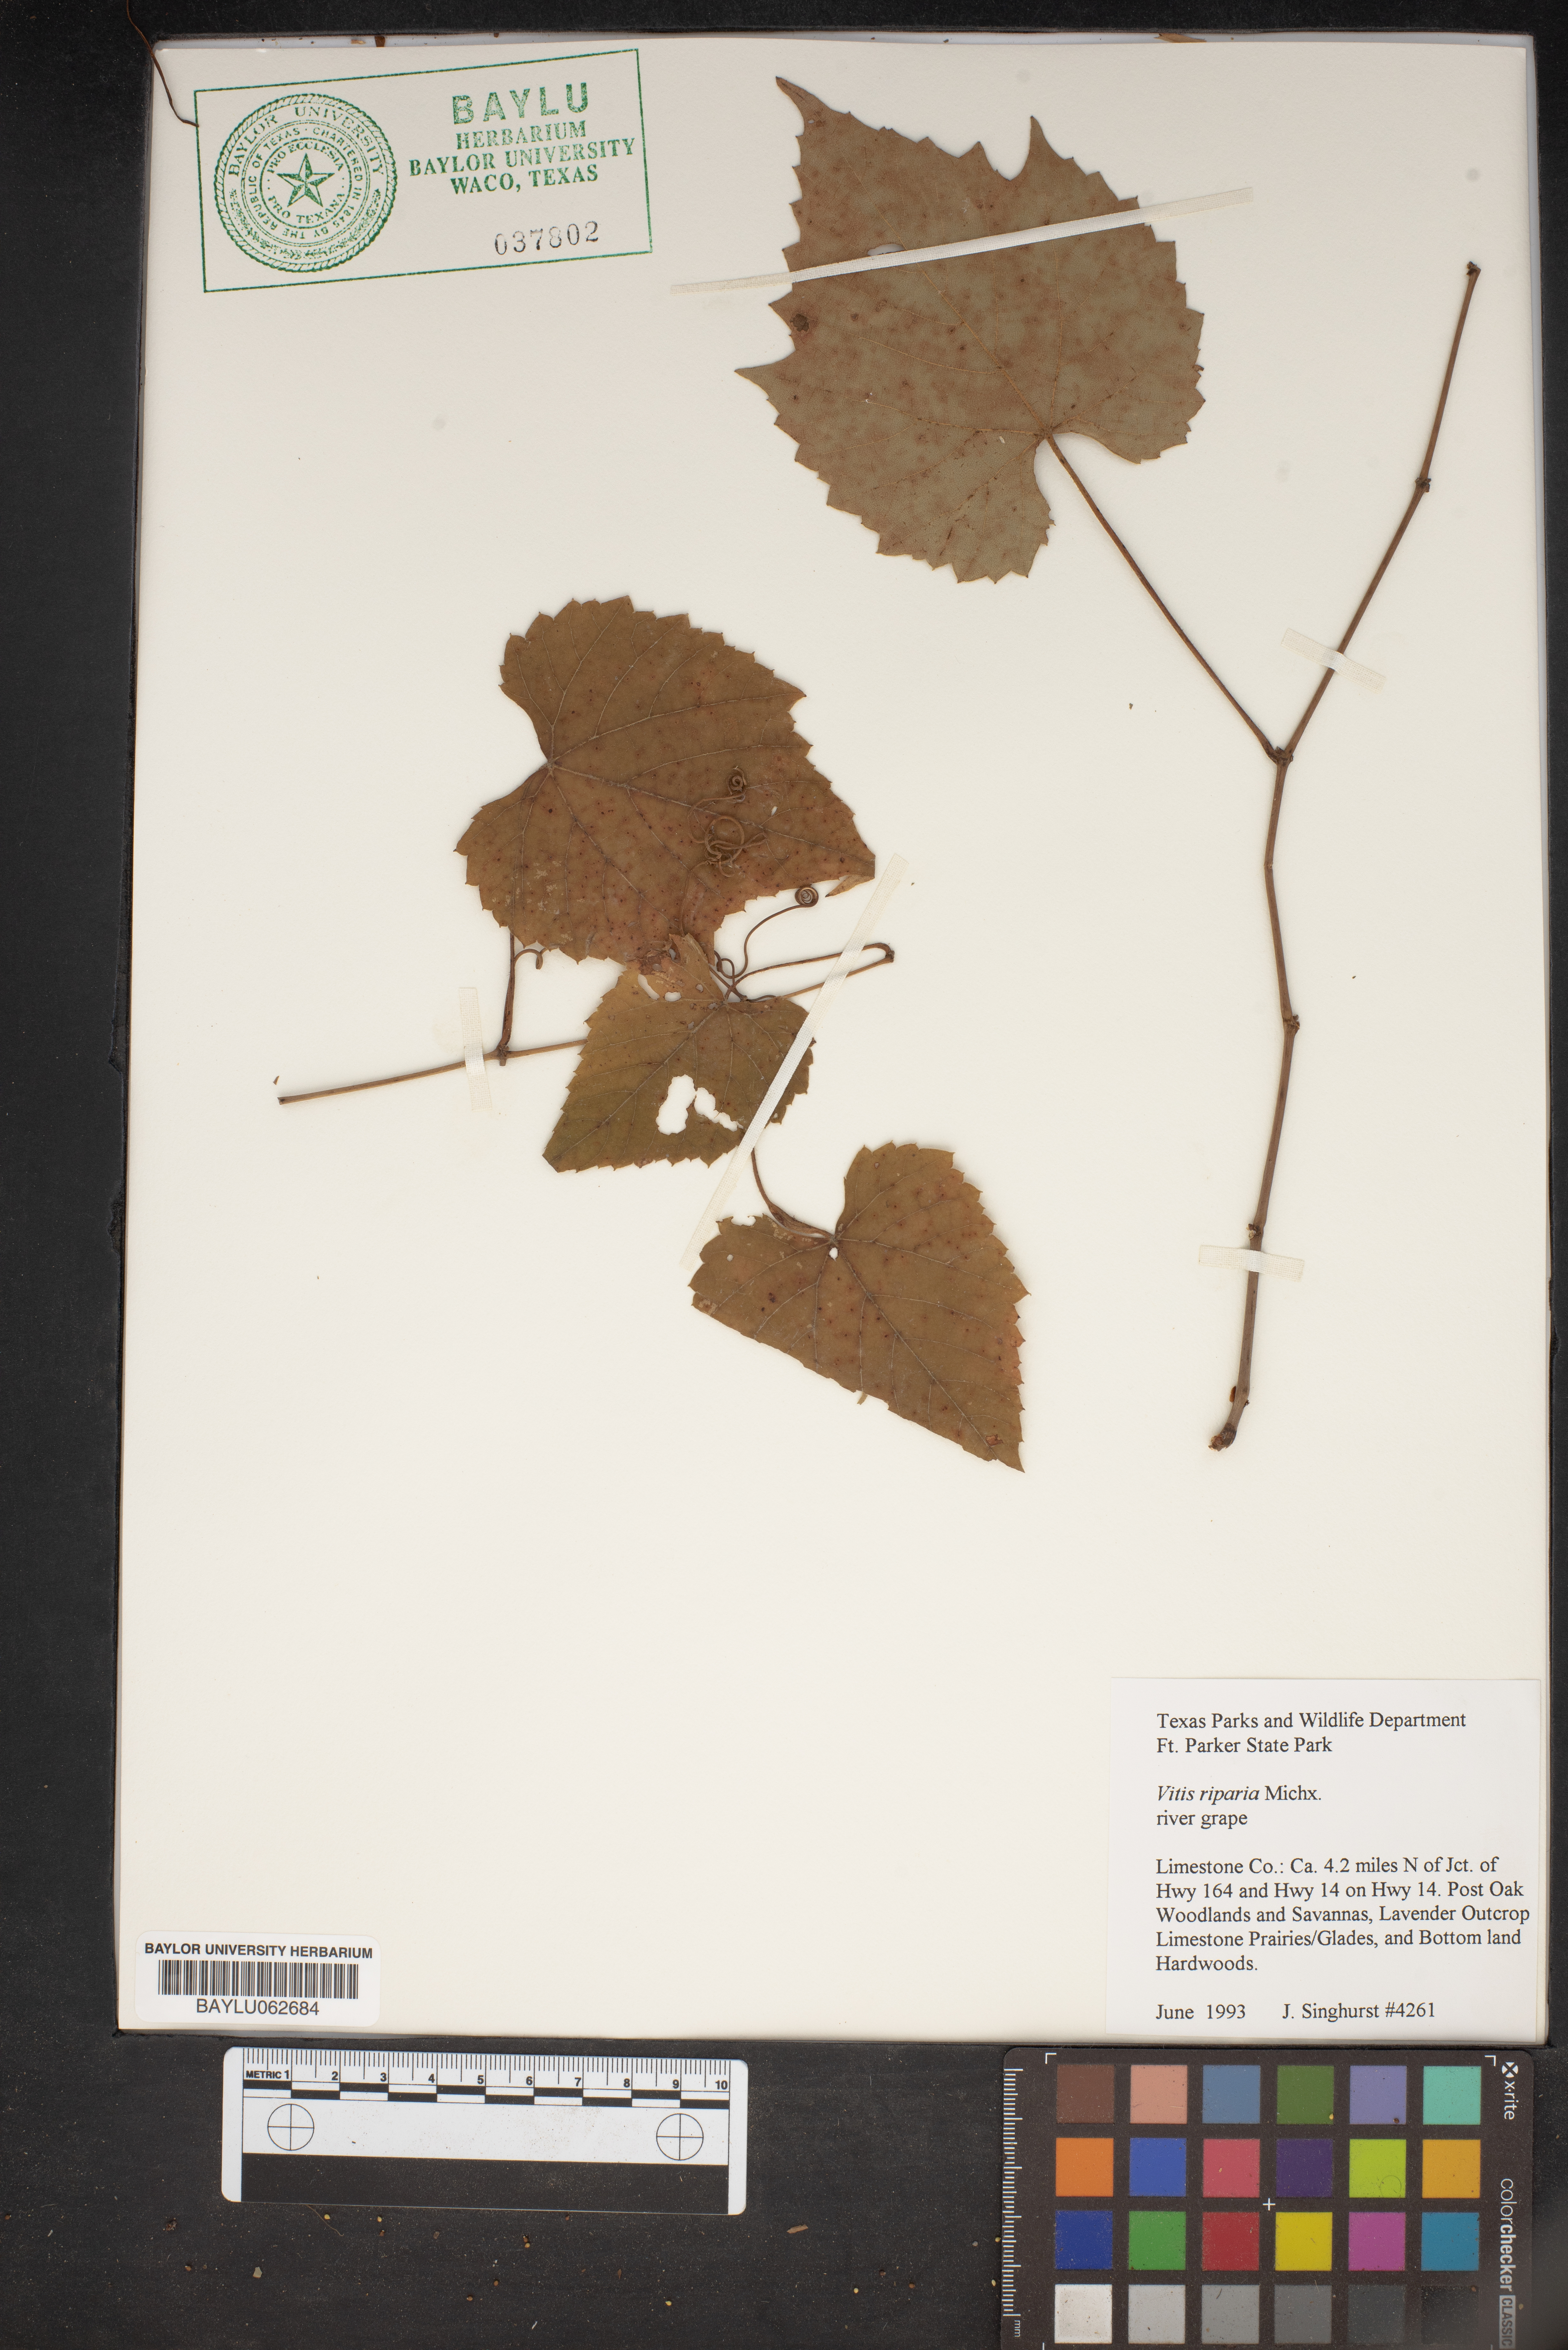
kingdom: Plantae
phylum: Tracheophyta
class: Magnoliopsida
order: Vitales
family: Vitaceae
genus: Vitis
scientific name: Vitis riparia
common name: Frost grape
